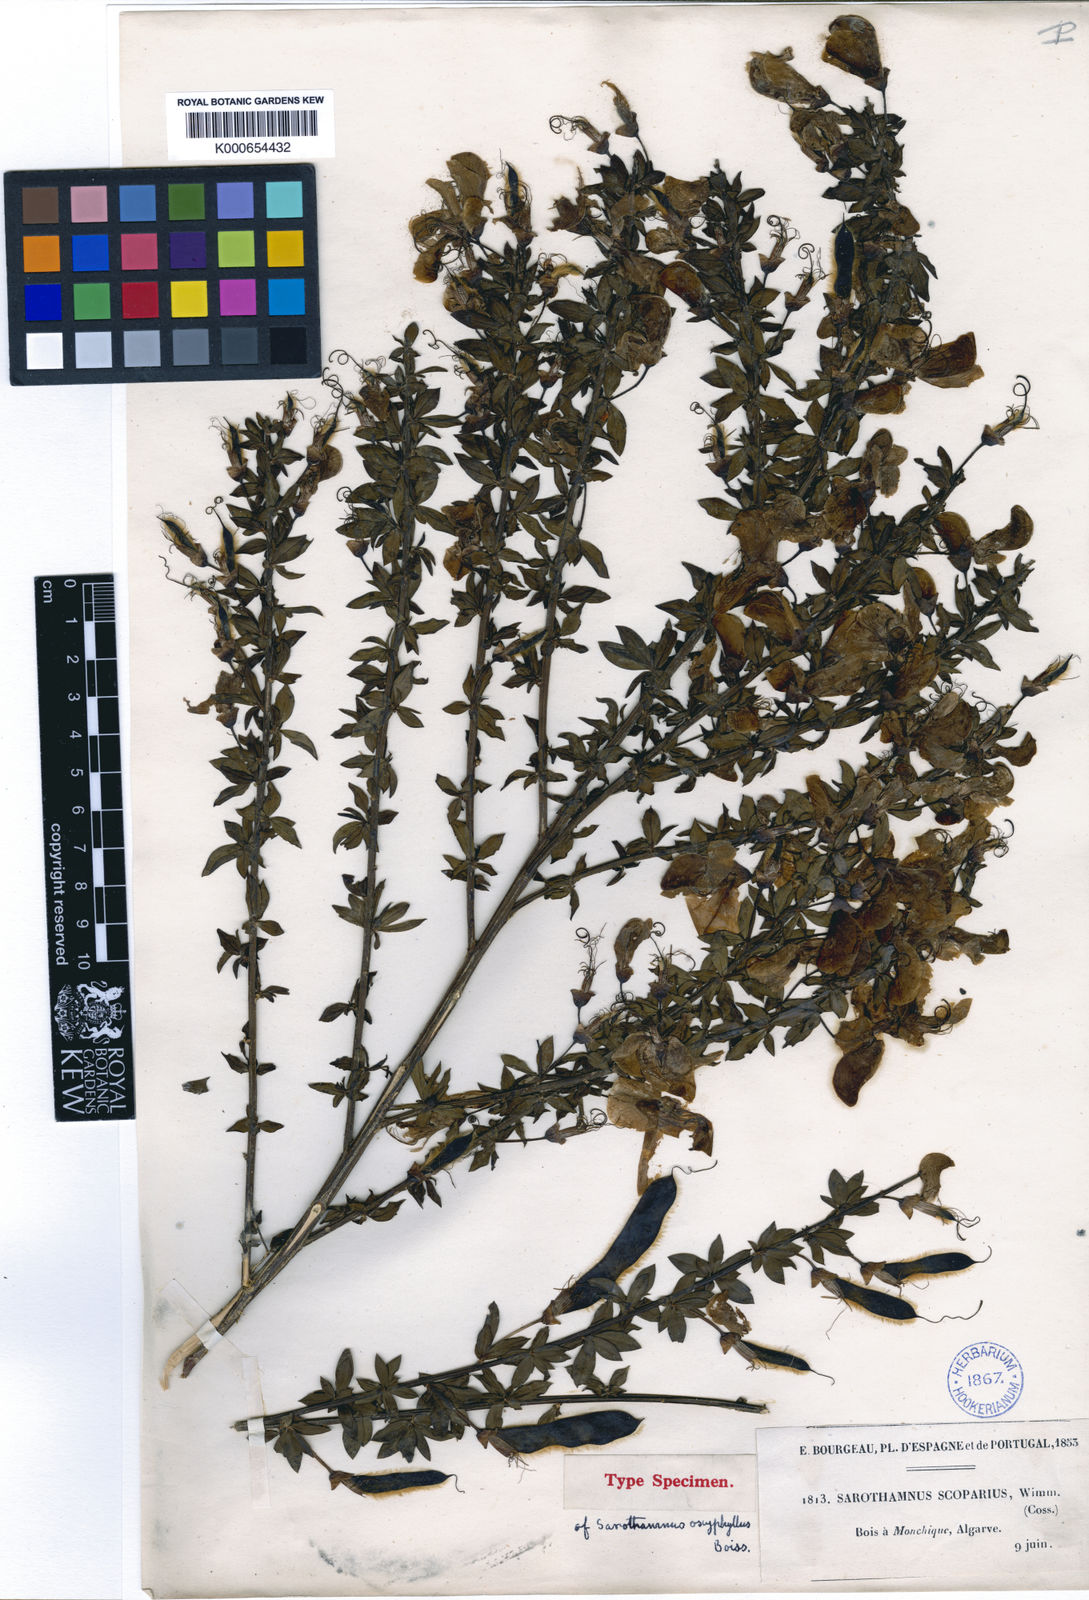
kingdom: Plantae
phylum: Tracheophyta
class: Magnoliopsida
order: Fabales
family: Fabaceae
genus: Cytisus
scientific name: Cytisus scoparius
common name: Scotch broom
